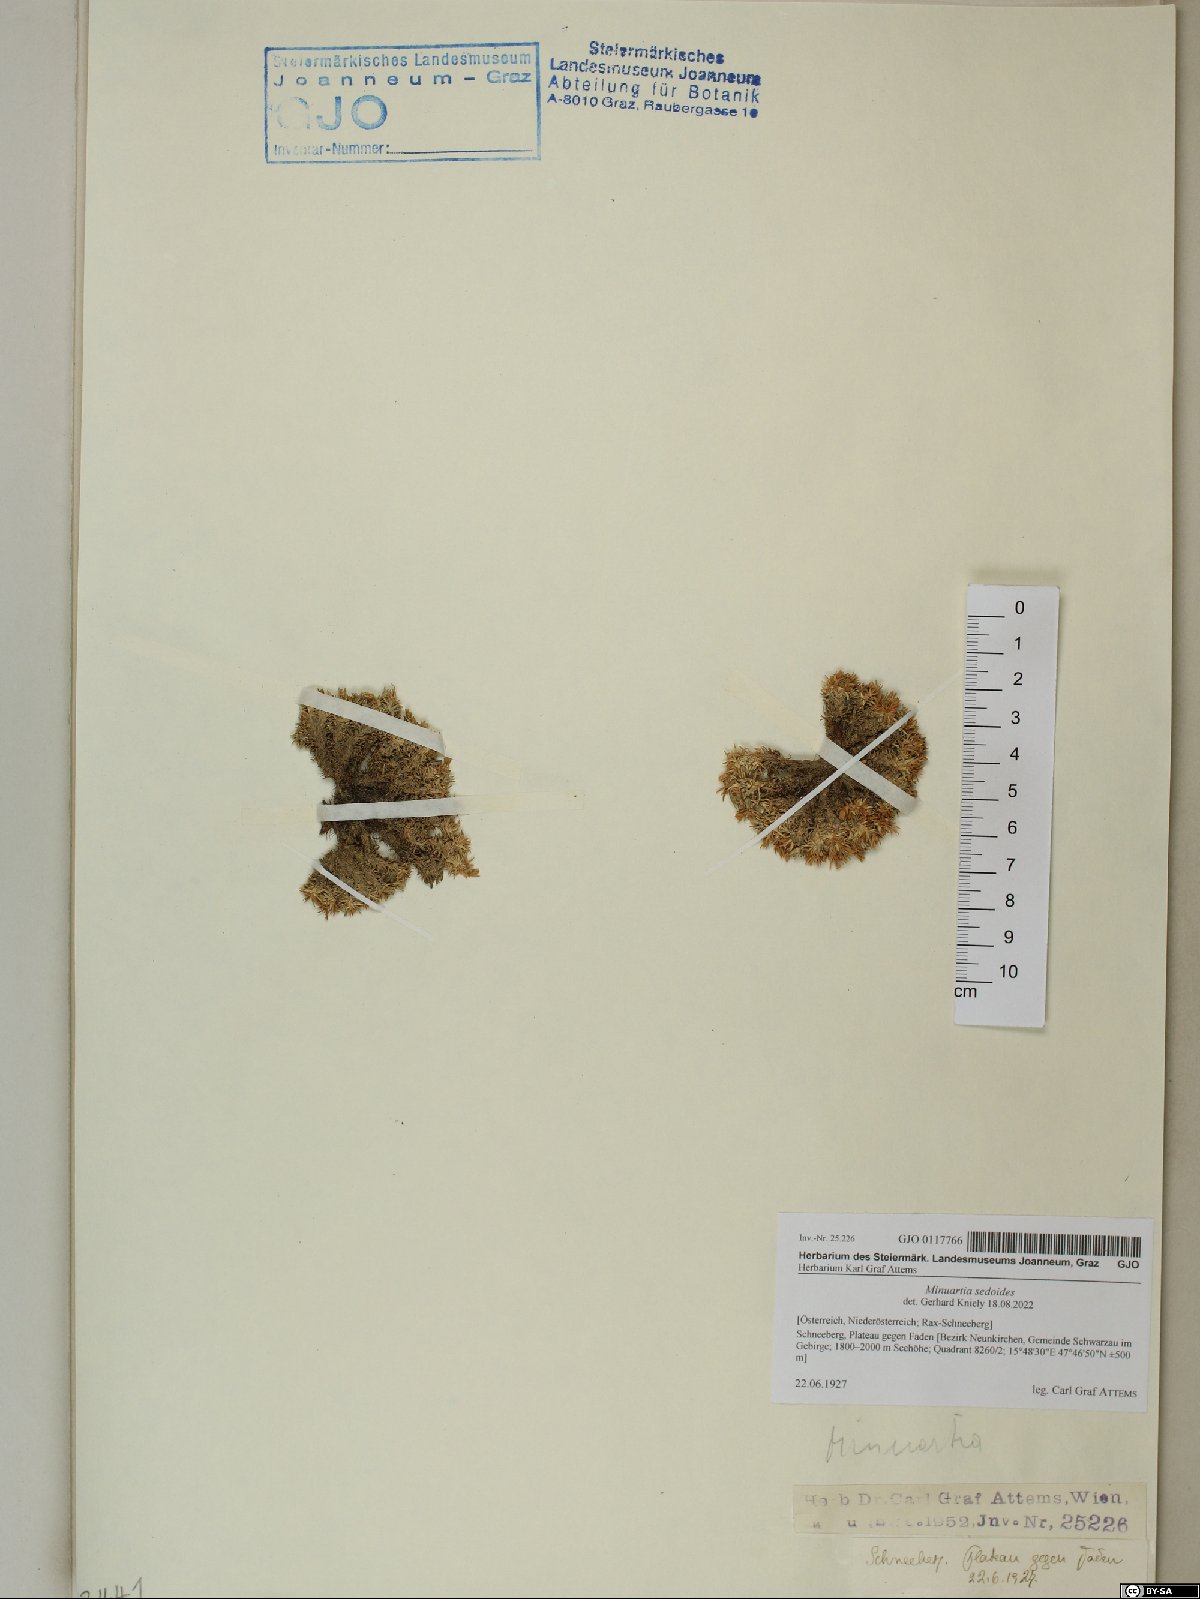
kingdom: Plantae
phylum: Tracheophyta
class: Magnoliopsida
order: Caryophyllales
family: Caryophyllaceae
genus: Cherleria
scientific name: Cherleria sedoides
